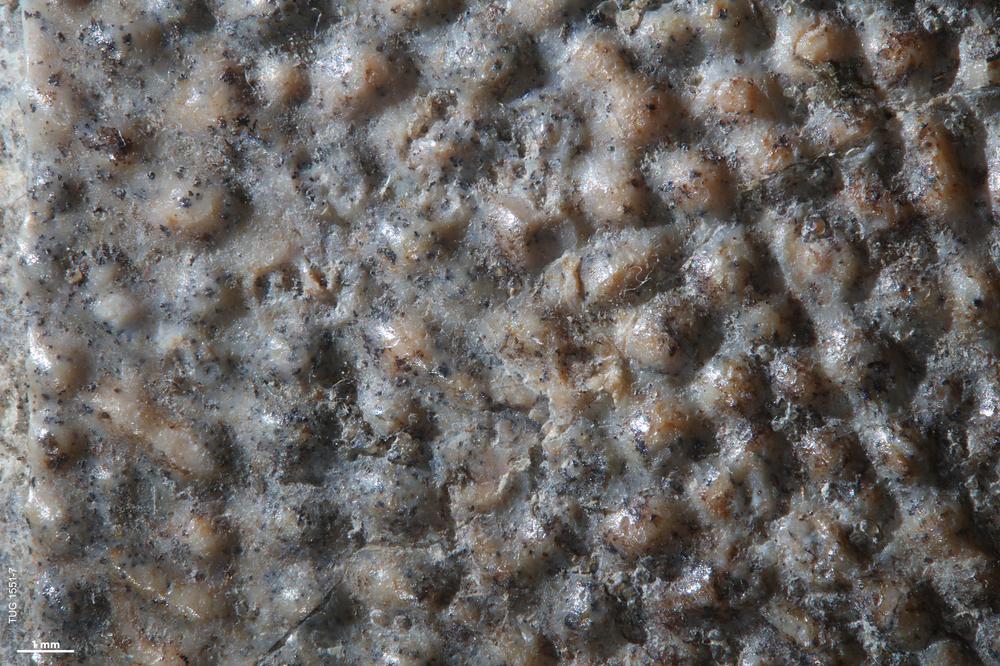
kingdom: Animalia
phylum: Chordata
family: Asterolepididae
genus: Asterolepis
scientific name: Asterolepis radiata
